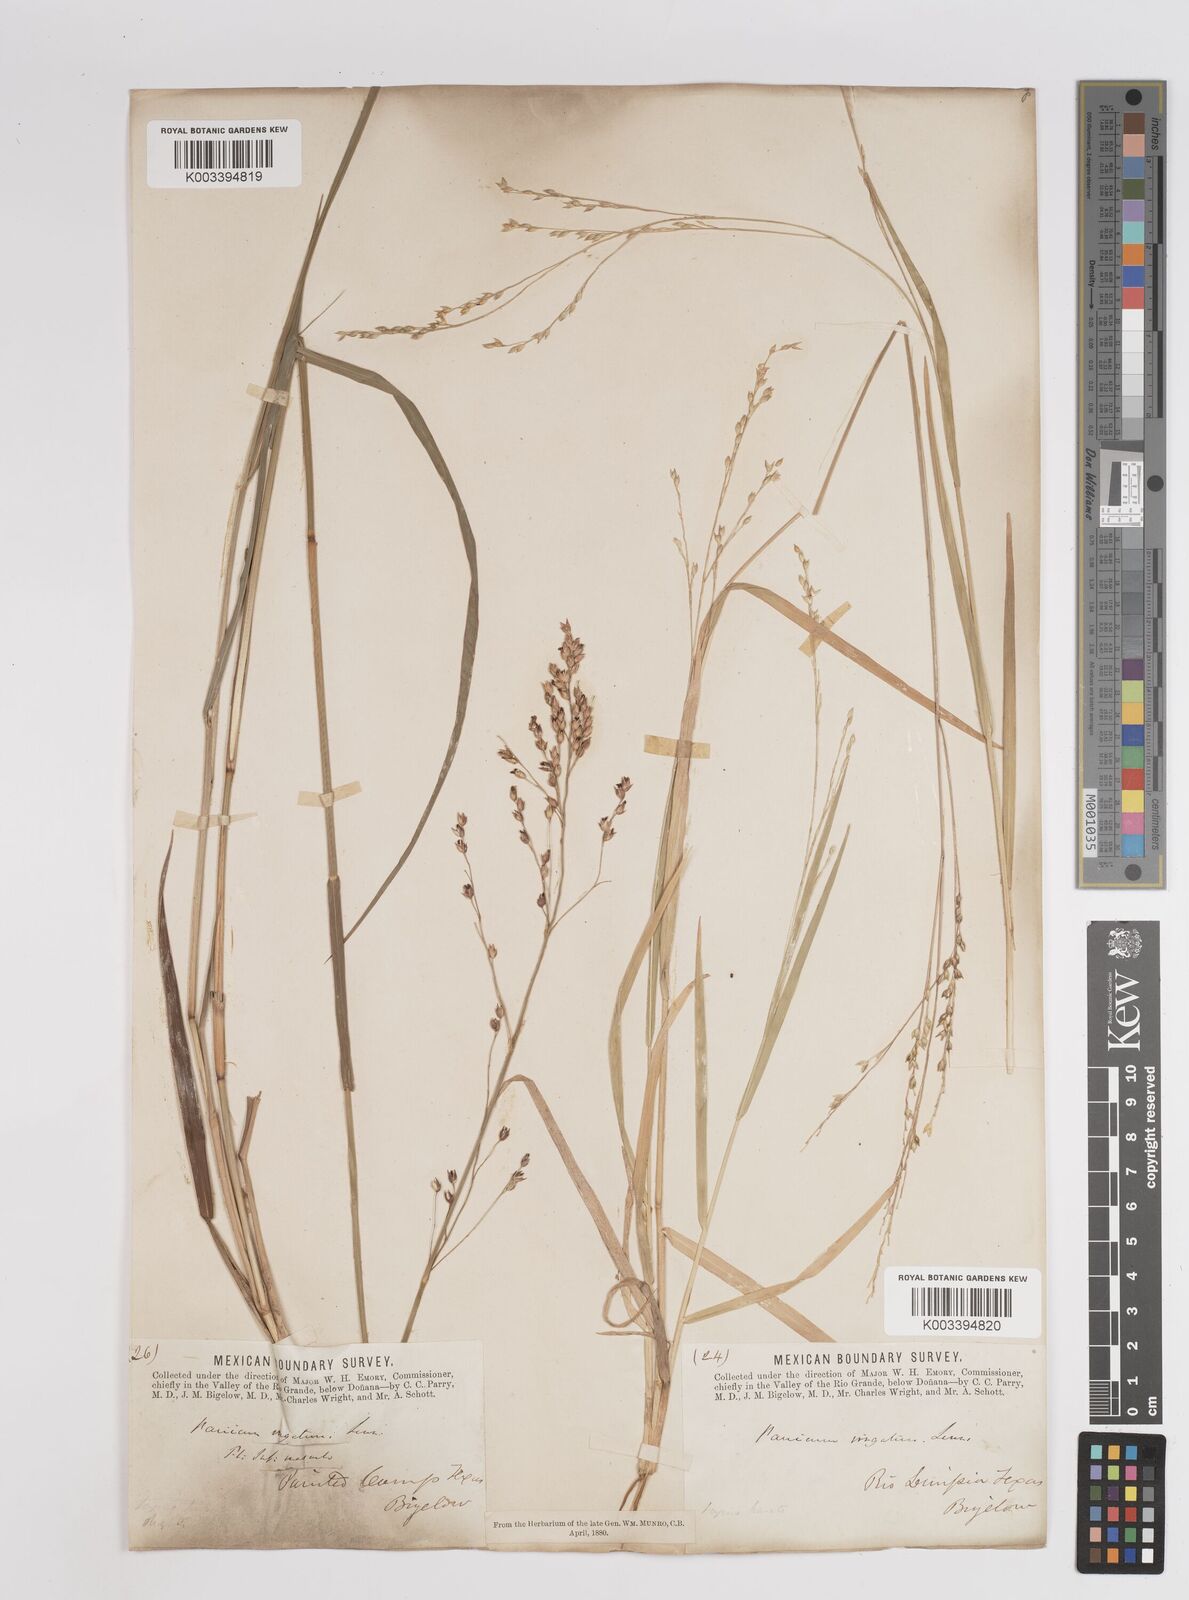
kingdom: Plantae
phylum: Tracheophyta
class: Liliopsida
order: Poales
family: Poaceae
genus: Panicum
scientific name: Panicum virgatum
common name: Switchgrass
